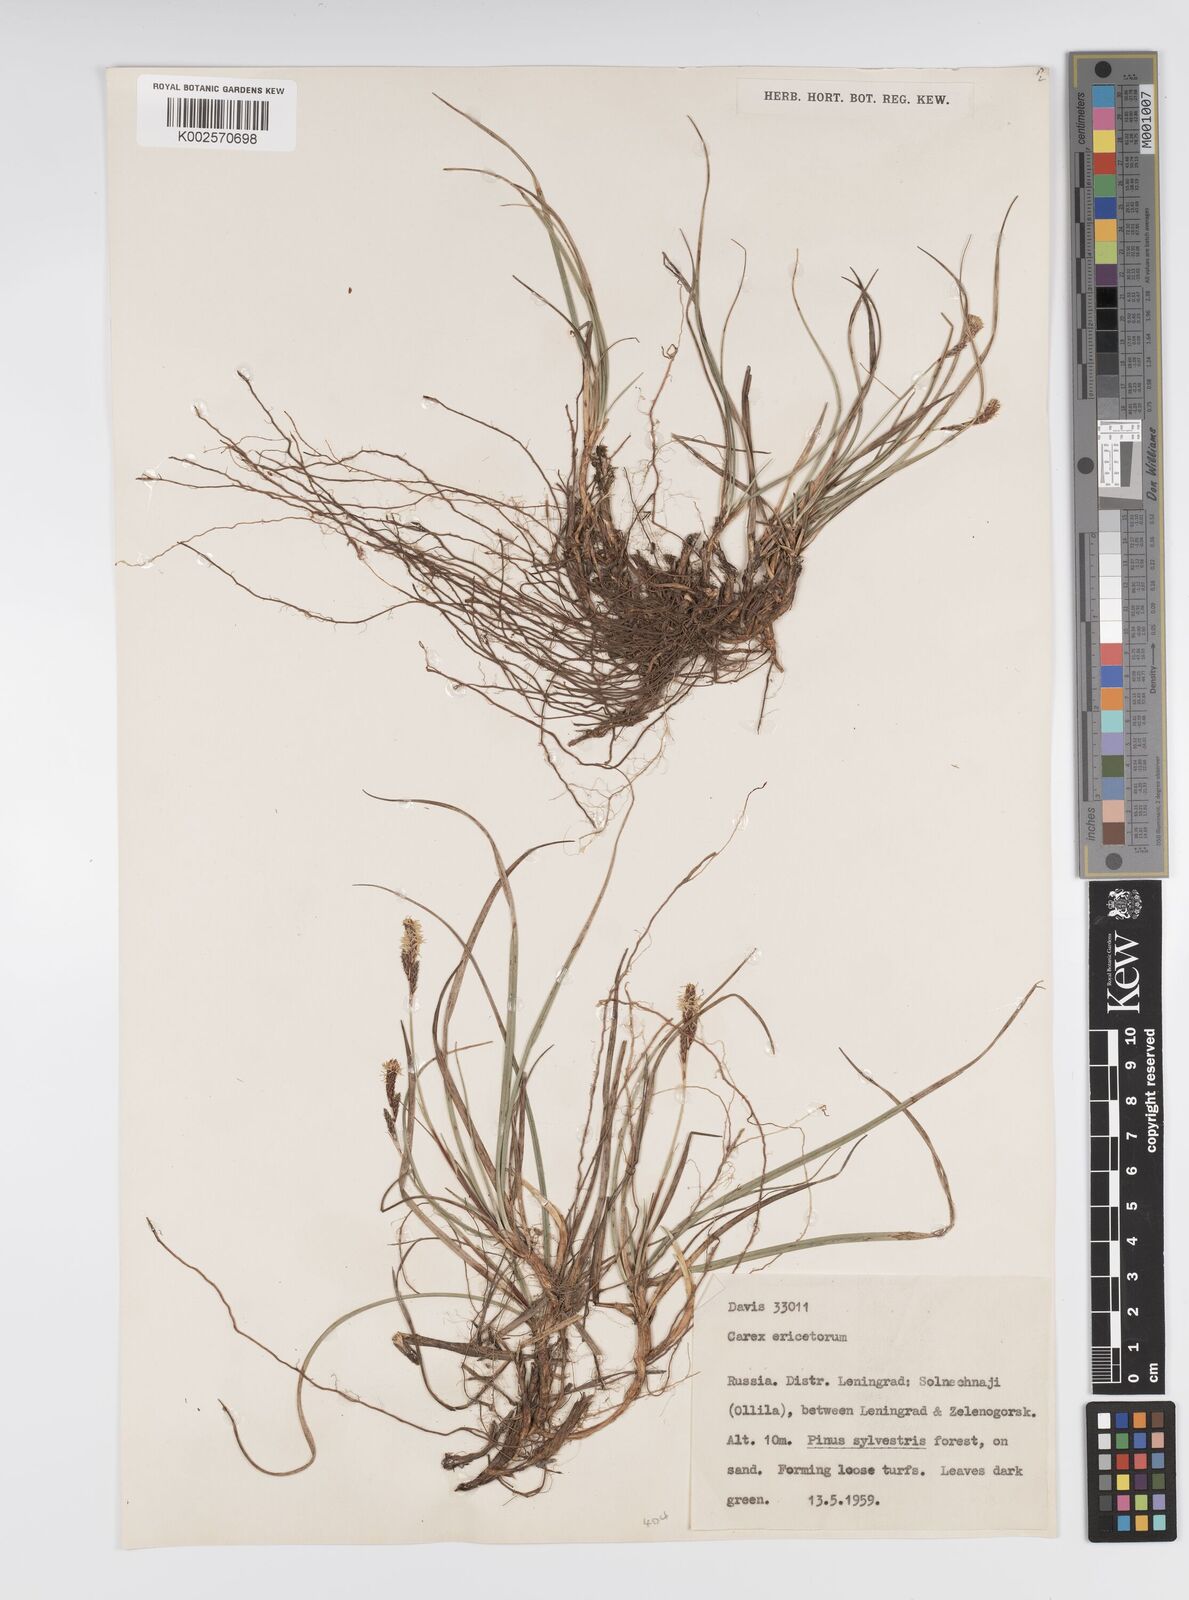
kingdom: Plantae
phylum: Tracheophyta
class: Liliopsida
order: Poales
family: Cyperaceae
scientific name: Cyperaceae
